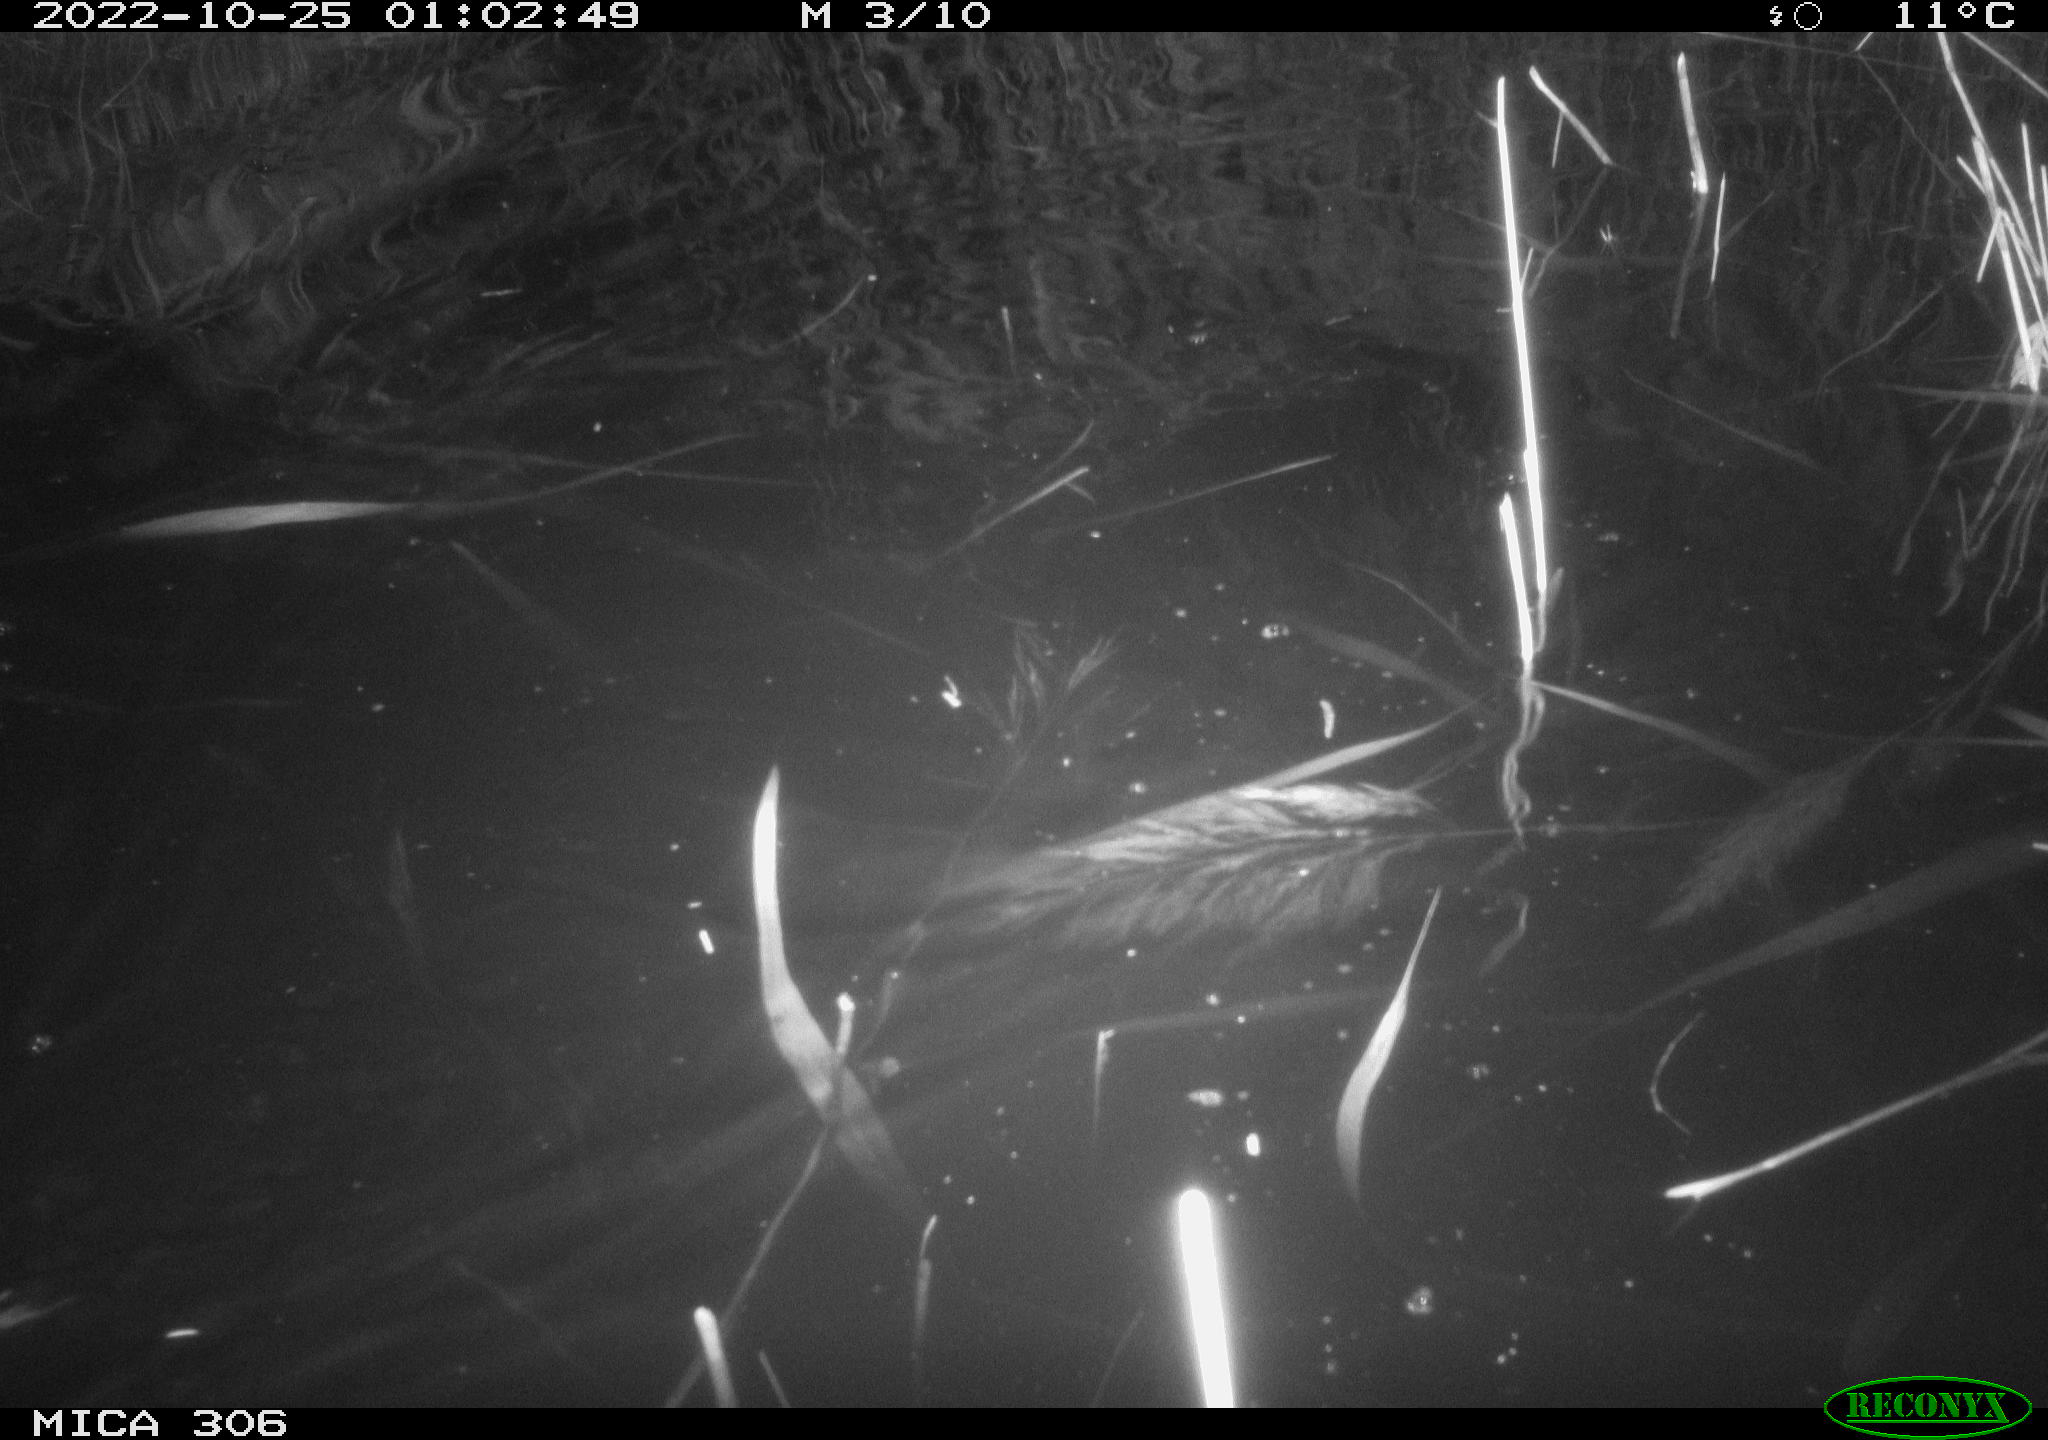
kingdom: Animalia
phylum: Chordata
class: Mammalia
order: Rodentia
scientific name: Rodentia
